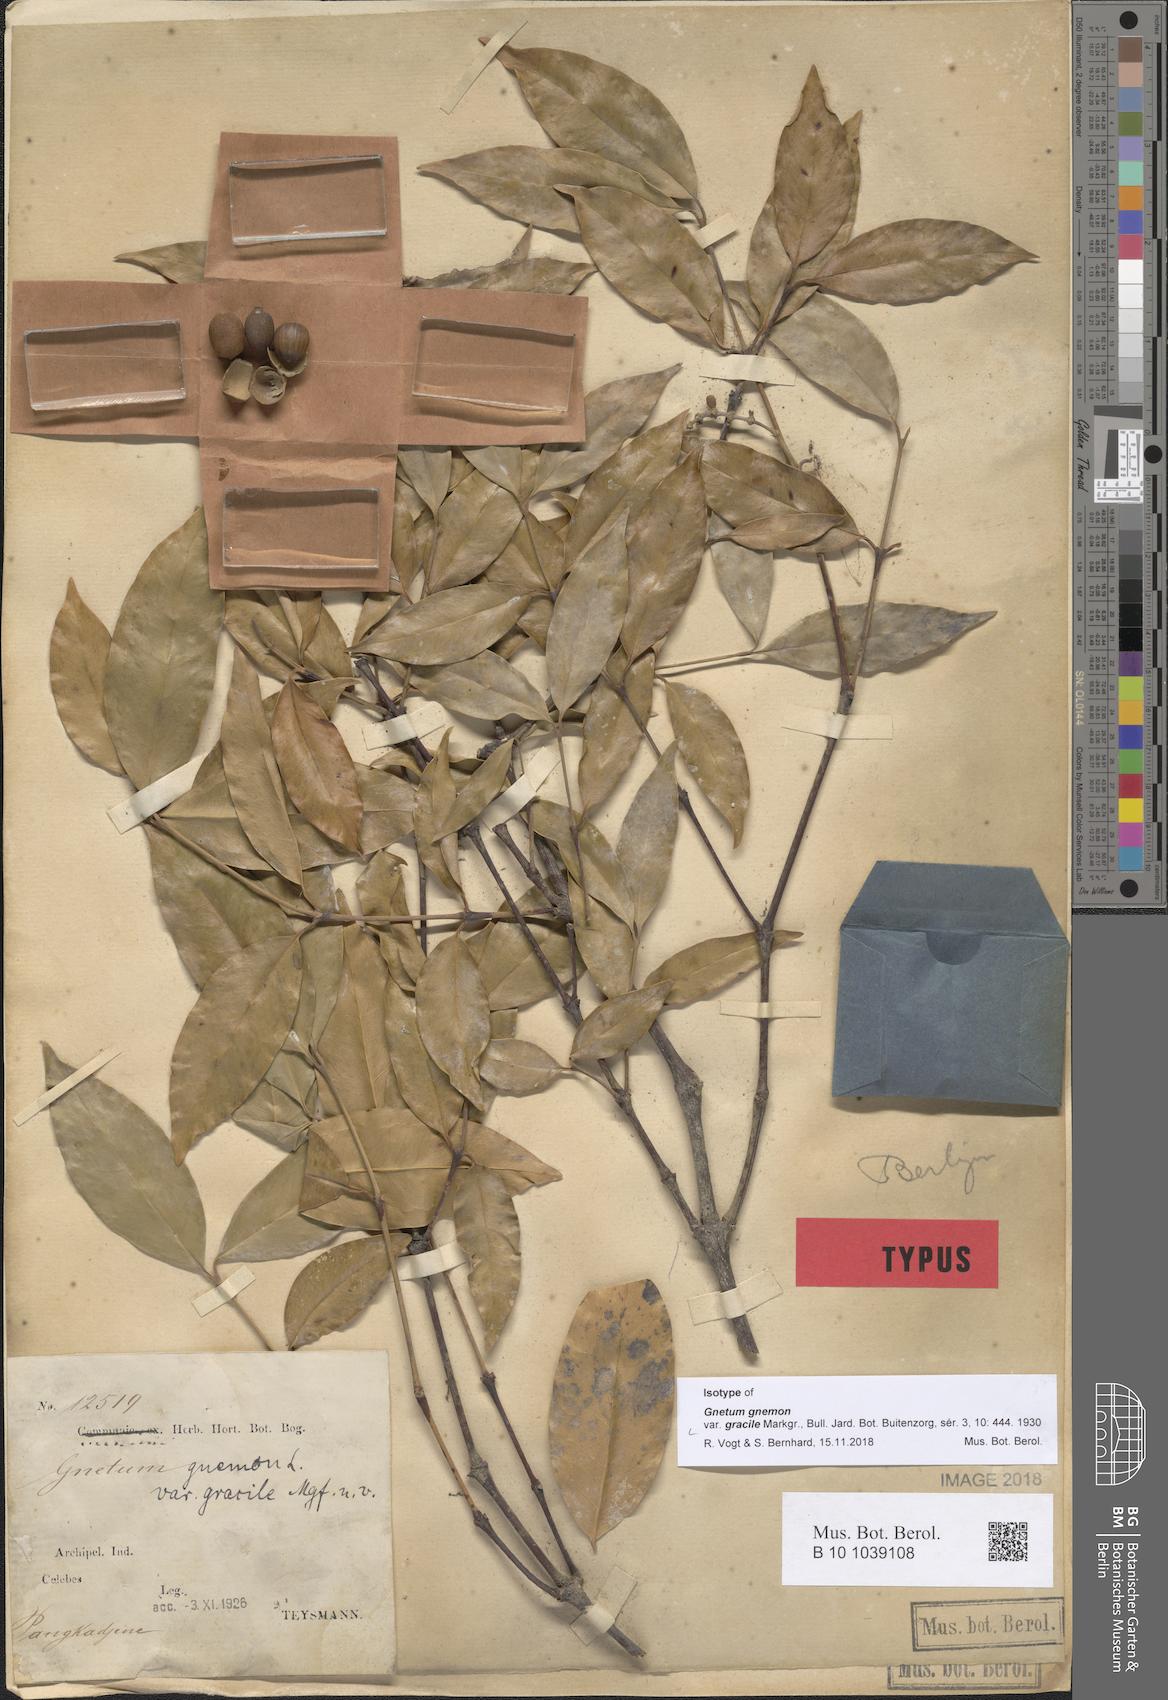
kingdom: Plantae
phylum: Tracheophyta
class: Gnetopsida
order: Gnetales
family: Gnetaceae
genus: Gnetum
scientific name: Gnetum gnemon
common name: Spanish joint-fir
